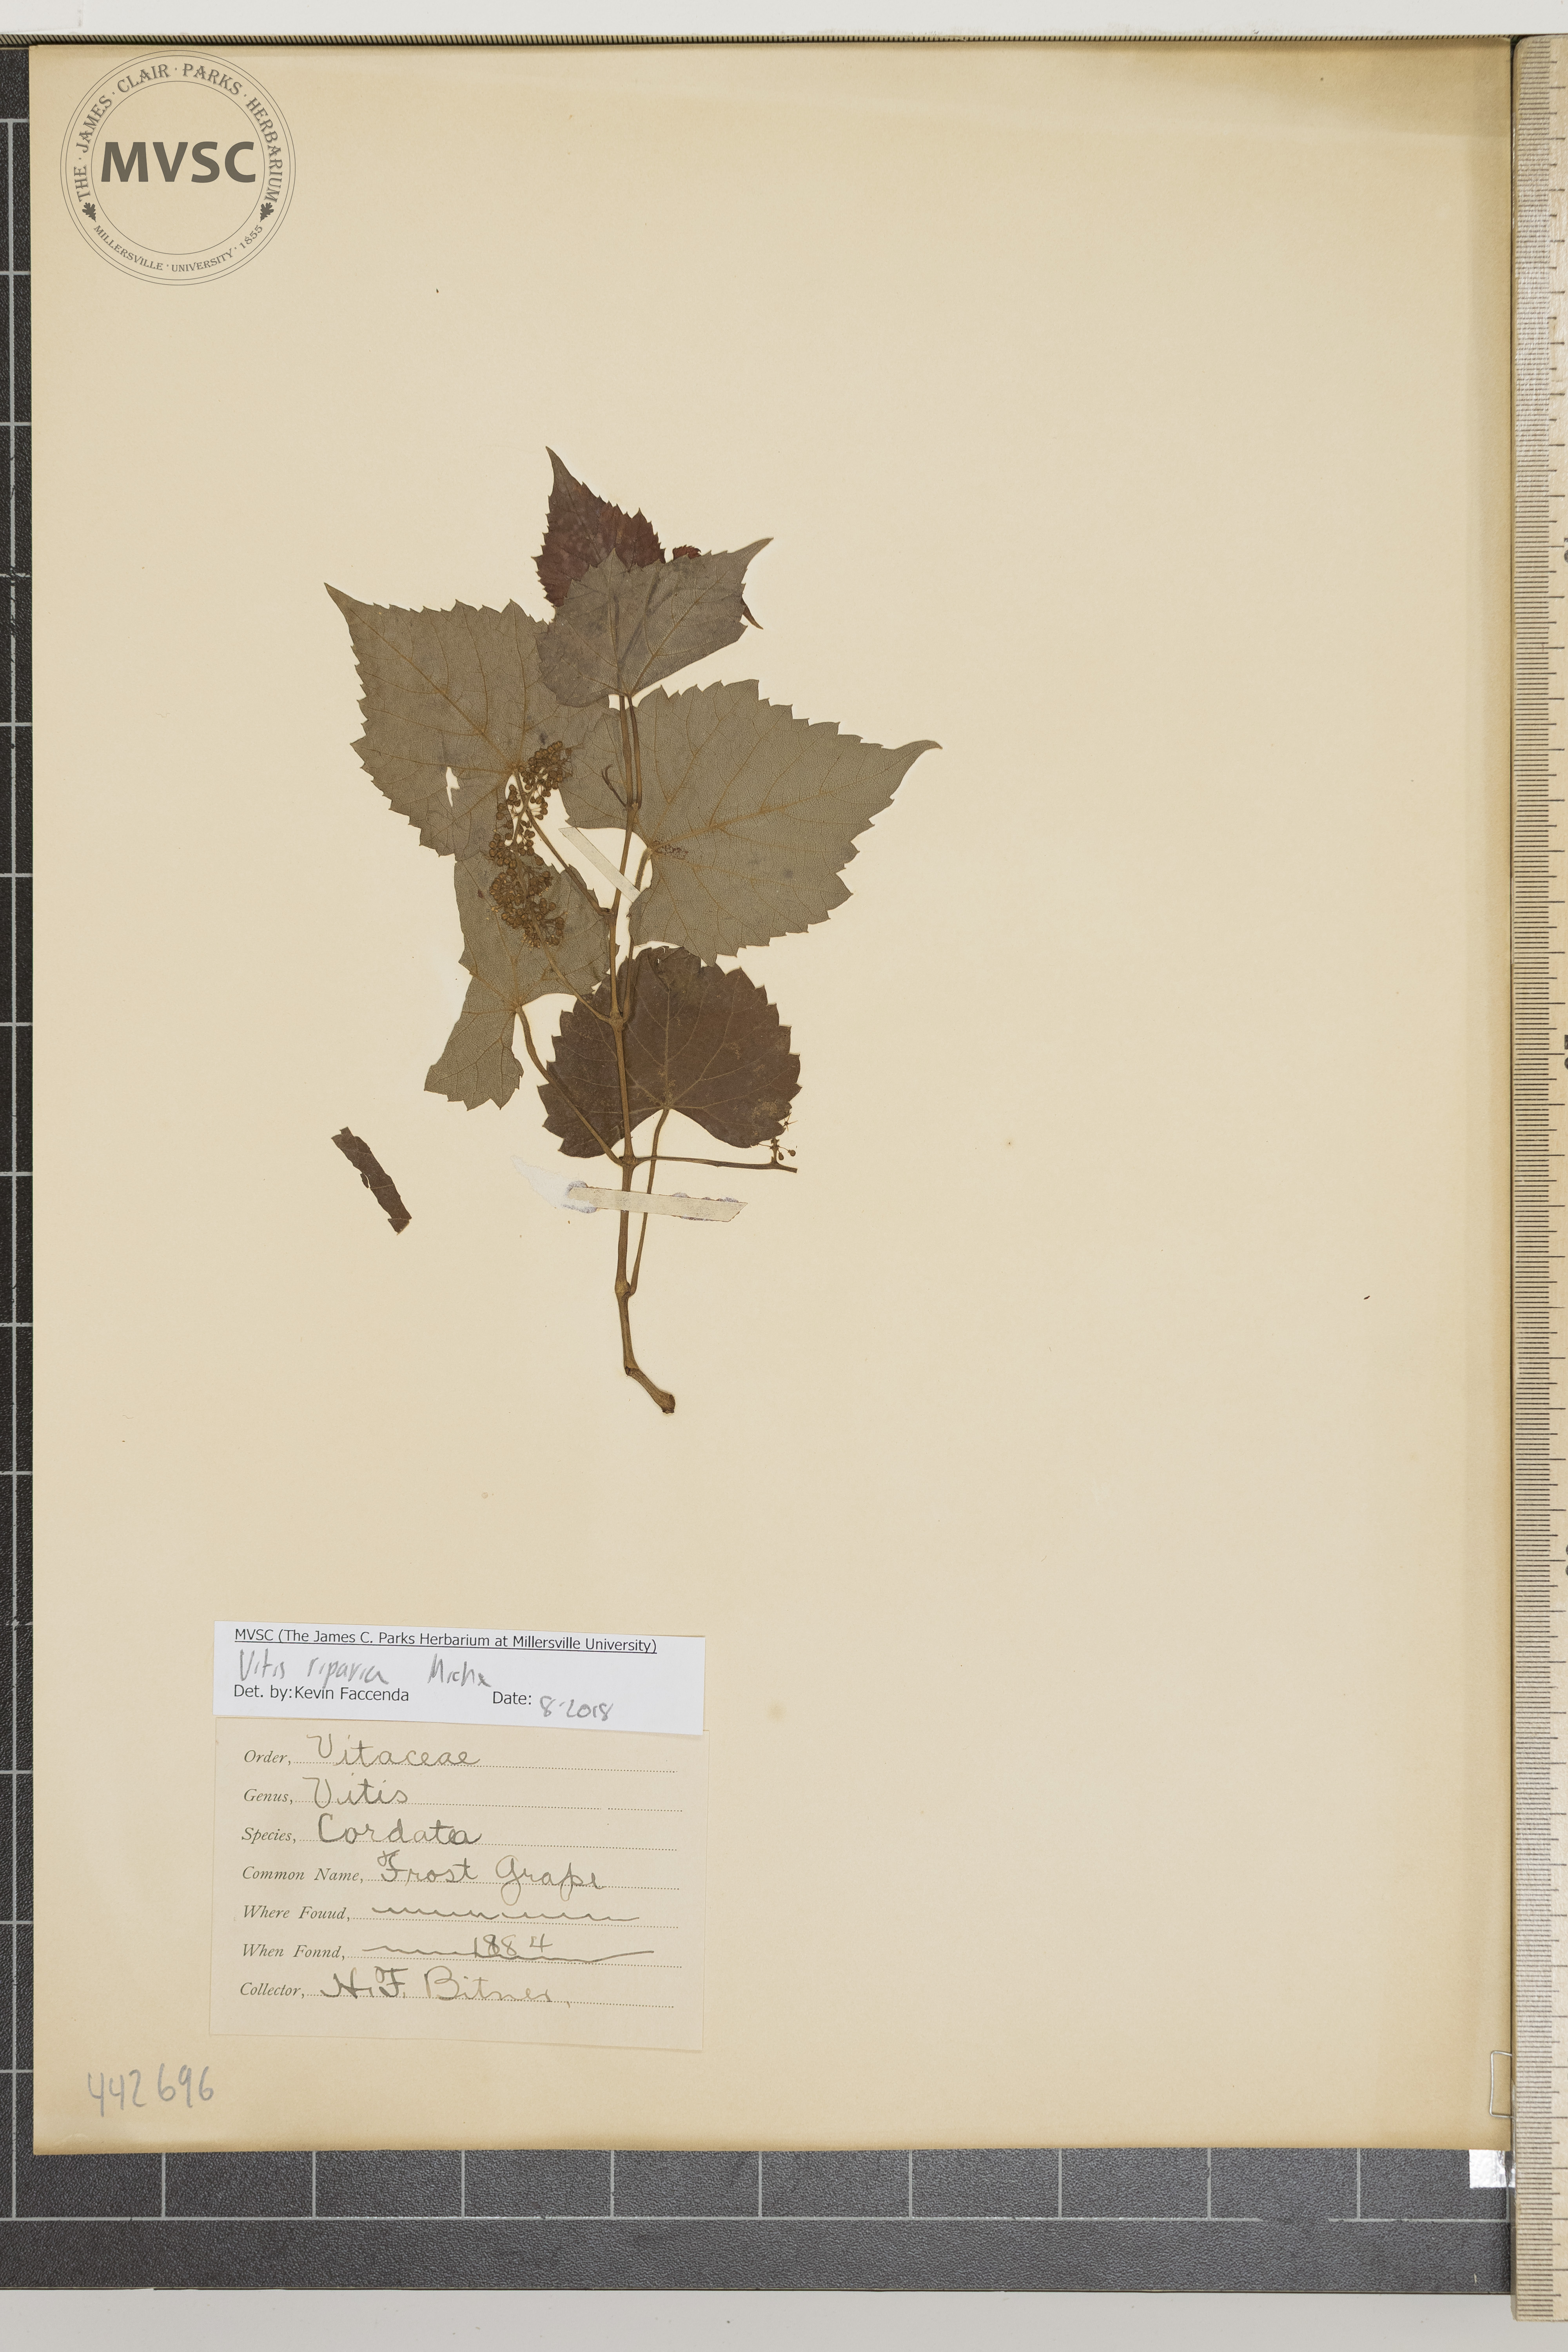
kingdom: Plantae
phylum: Tracheophyta
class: Magnoliopsida
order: Vitales
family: Vitaceae
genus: Vitis
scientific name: Vitis riparia
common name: Frost Grape
